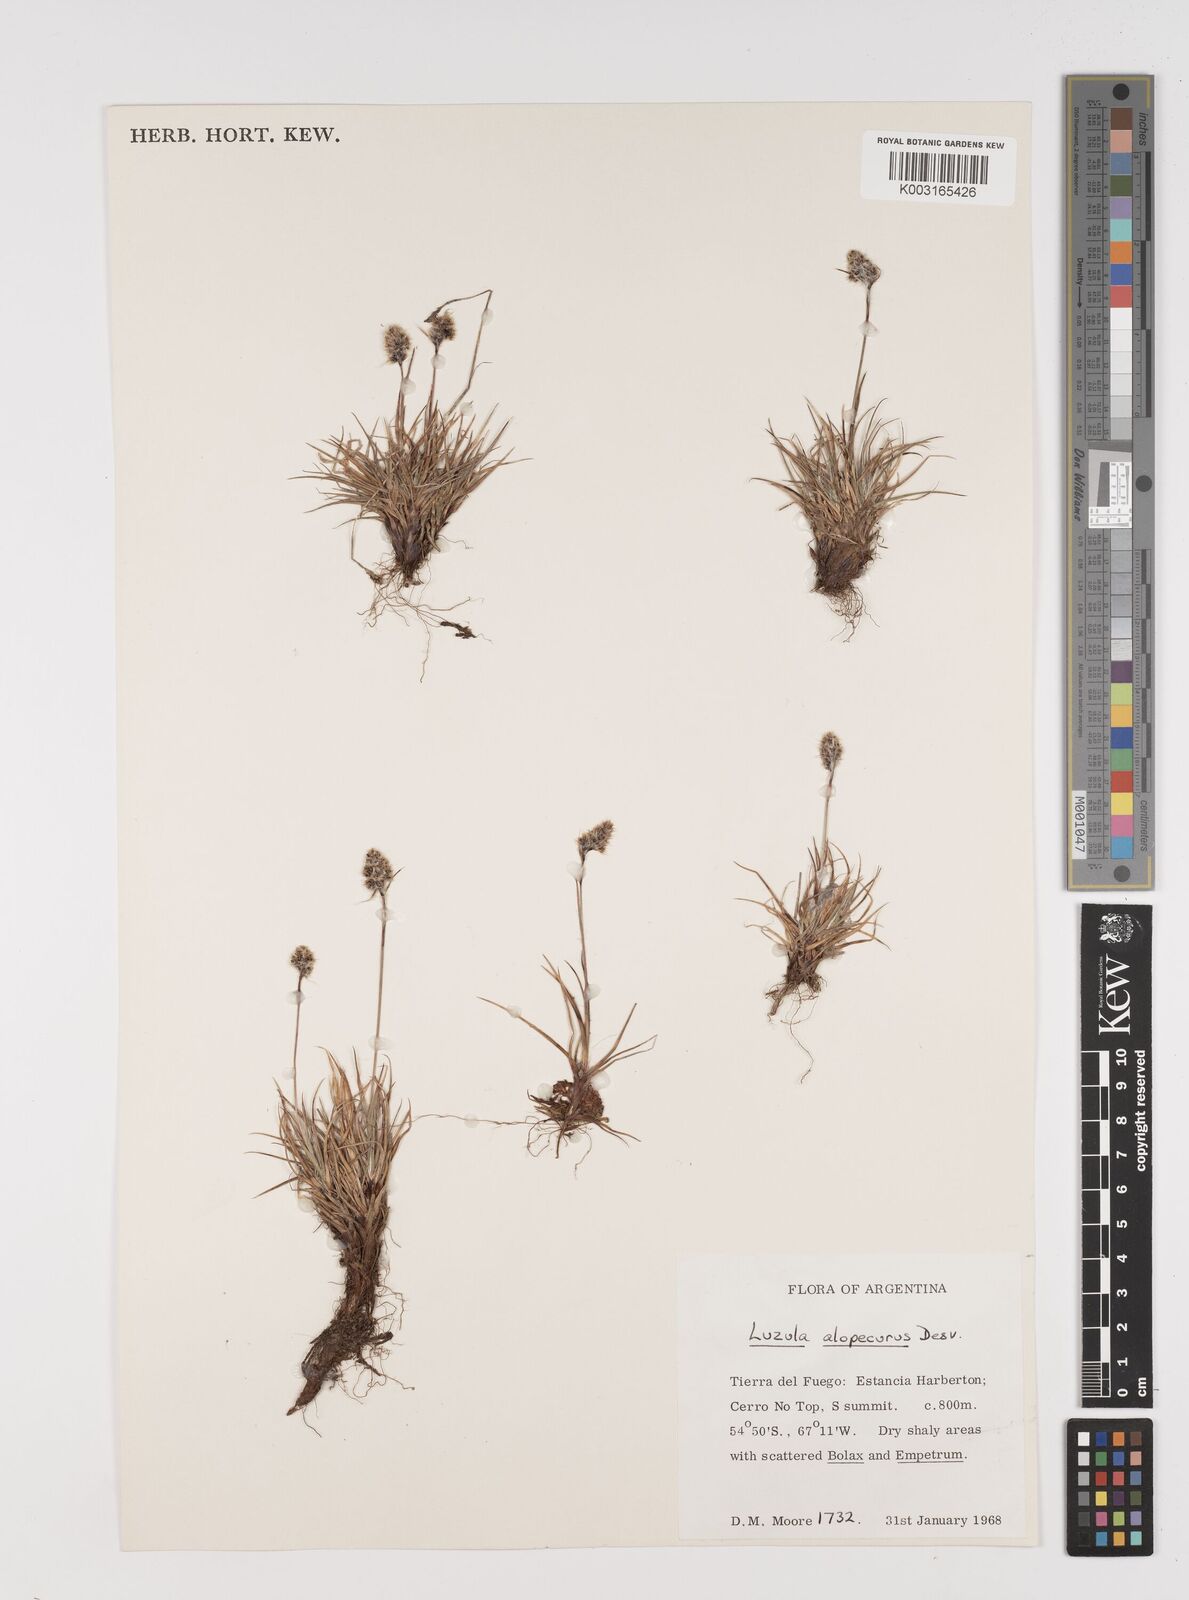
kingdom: Plantae
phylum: Tracheophyta
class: Liliopsida
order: Poales
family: Juncaceae
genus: Luzula
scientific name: Luzula alopecurus
